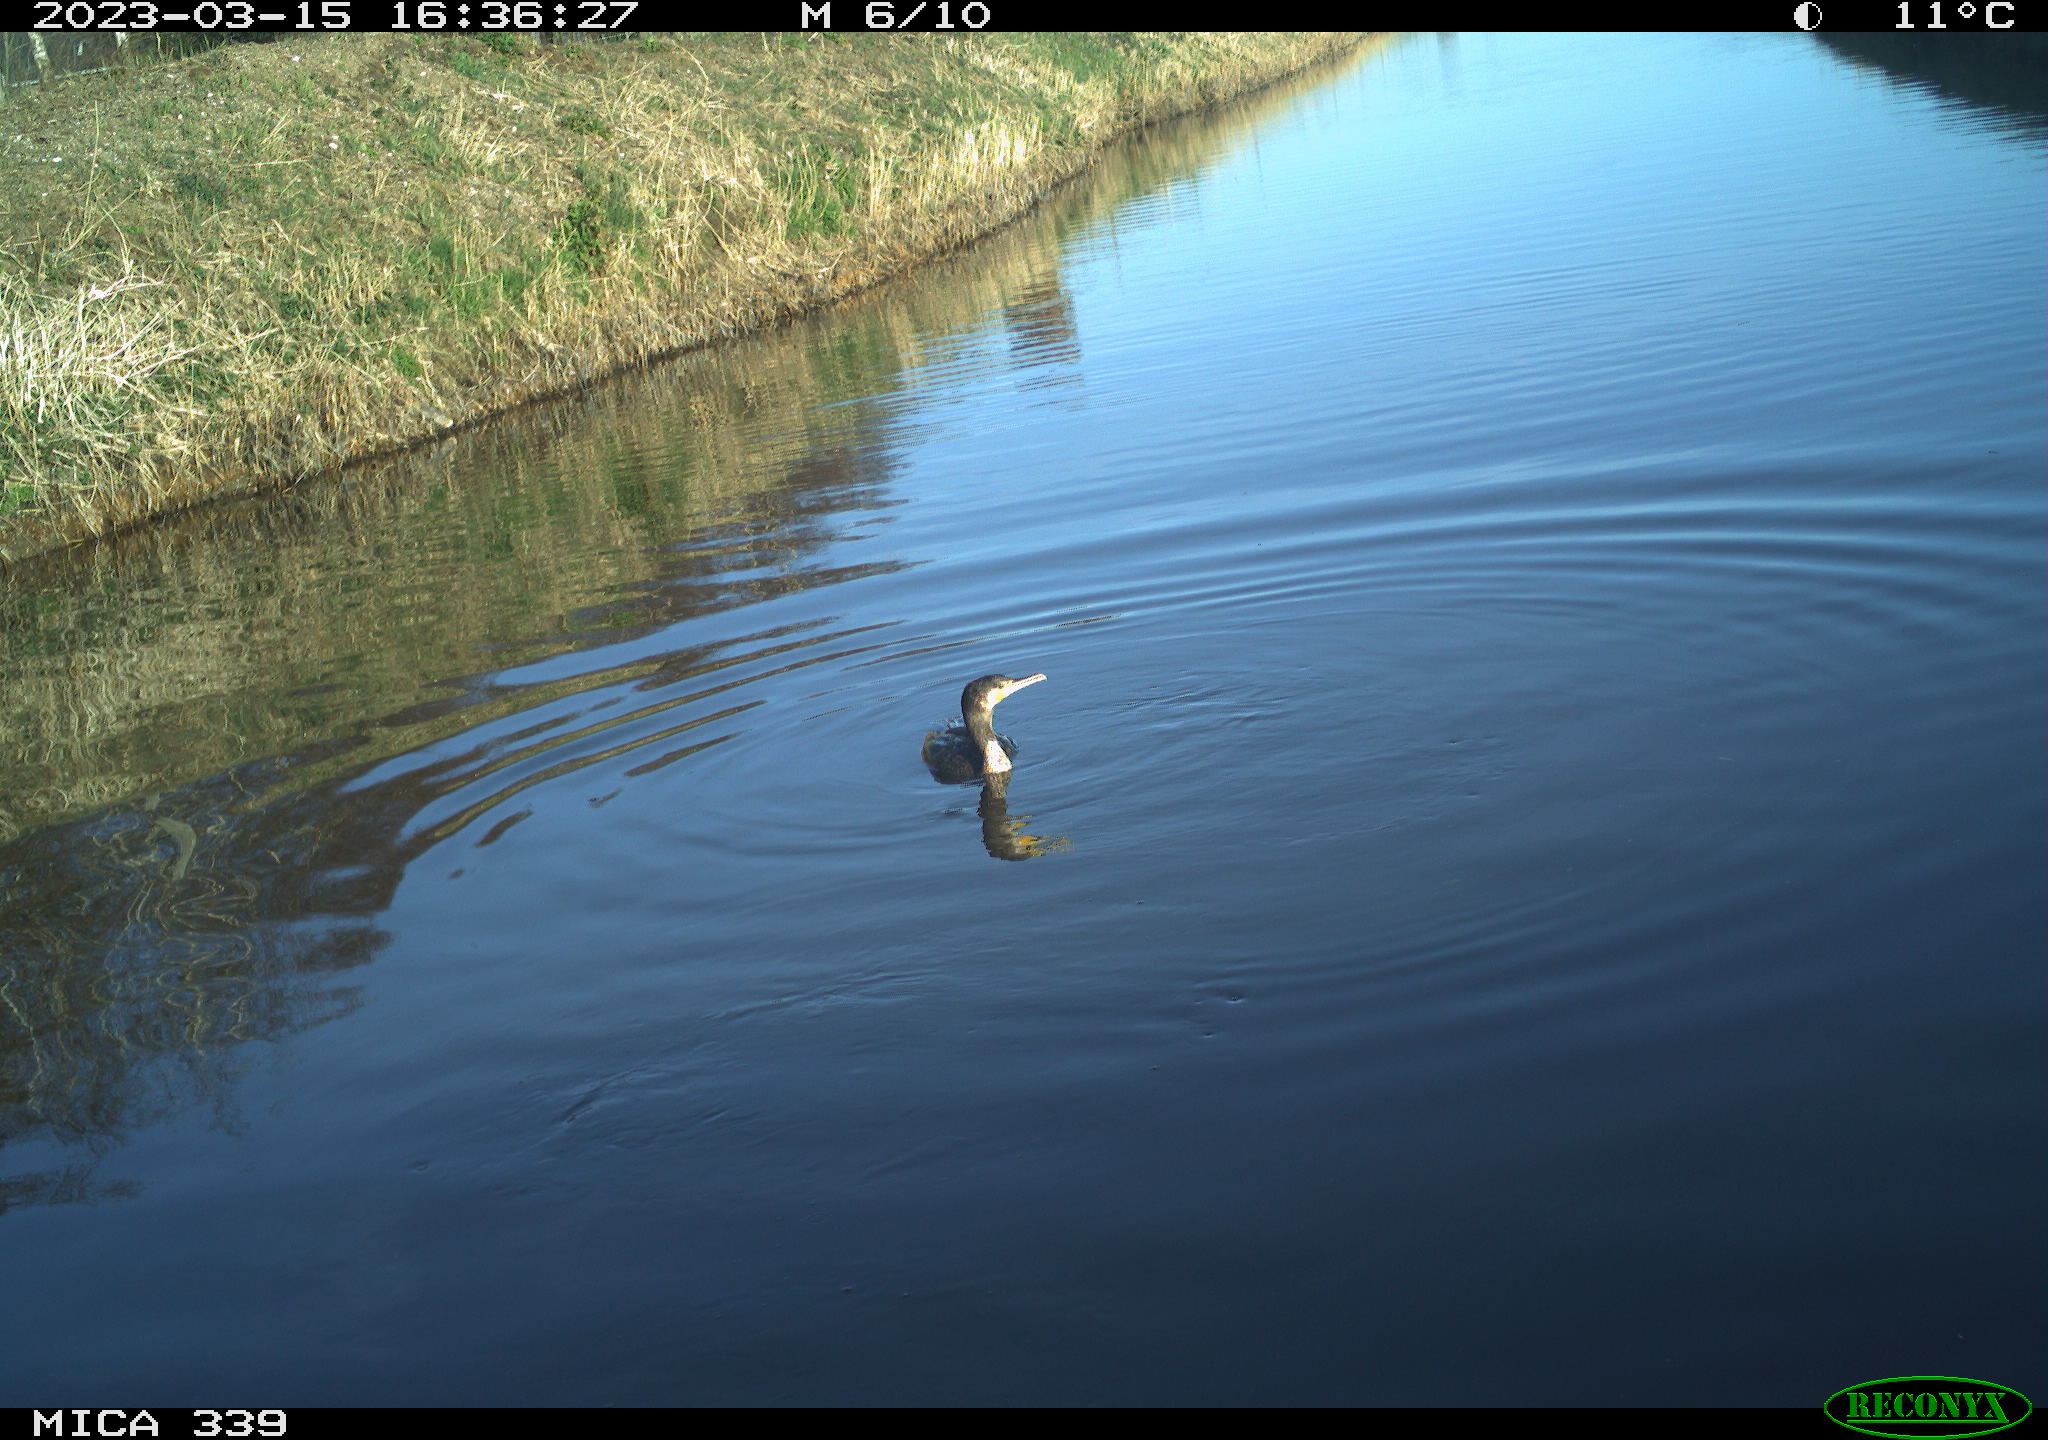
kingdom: Animalia
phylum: Chordata
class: Aves
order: Gruiformes
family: Rallidae
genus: Fulica
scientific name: Fulica atra
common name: Eurasian coot
